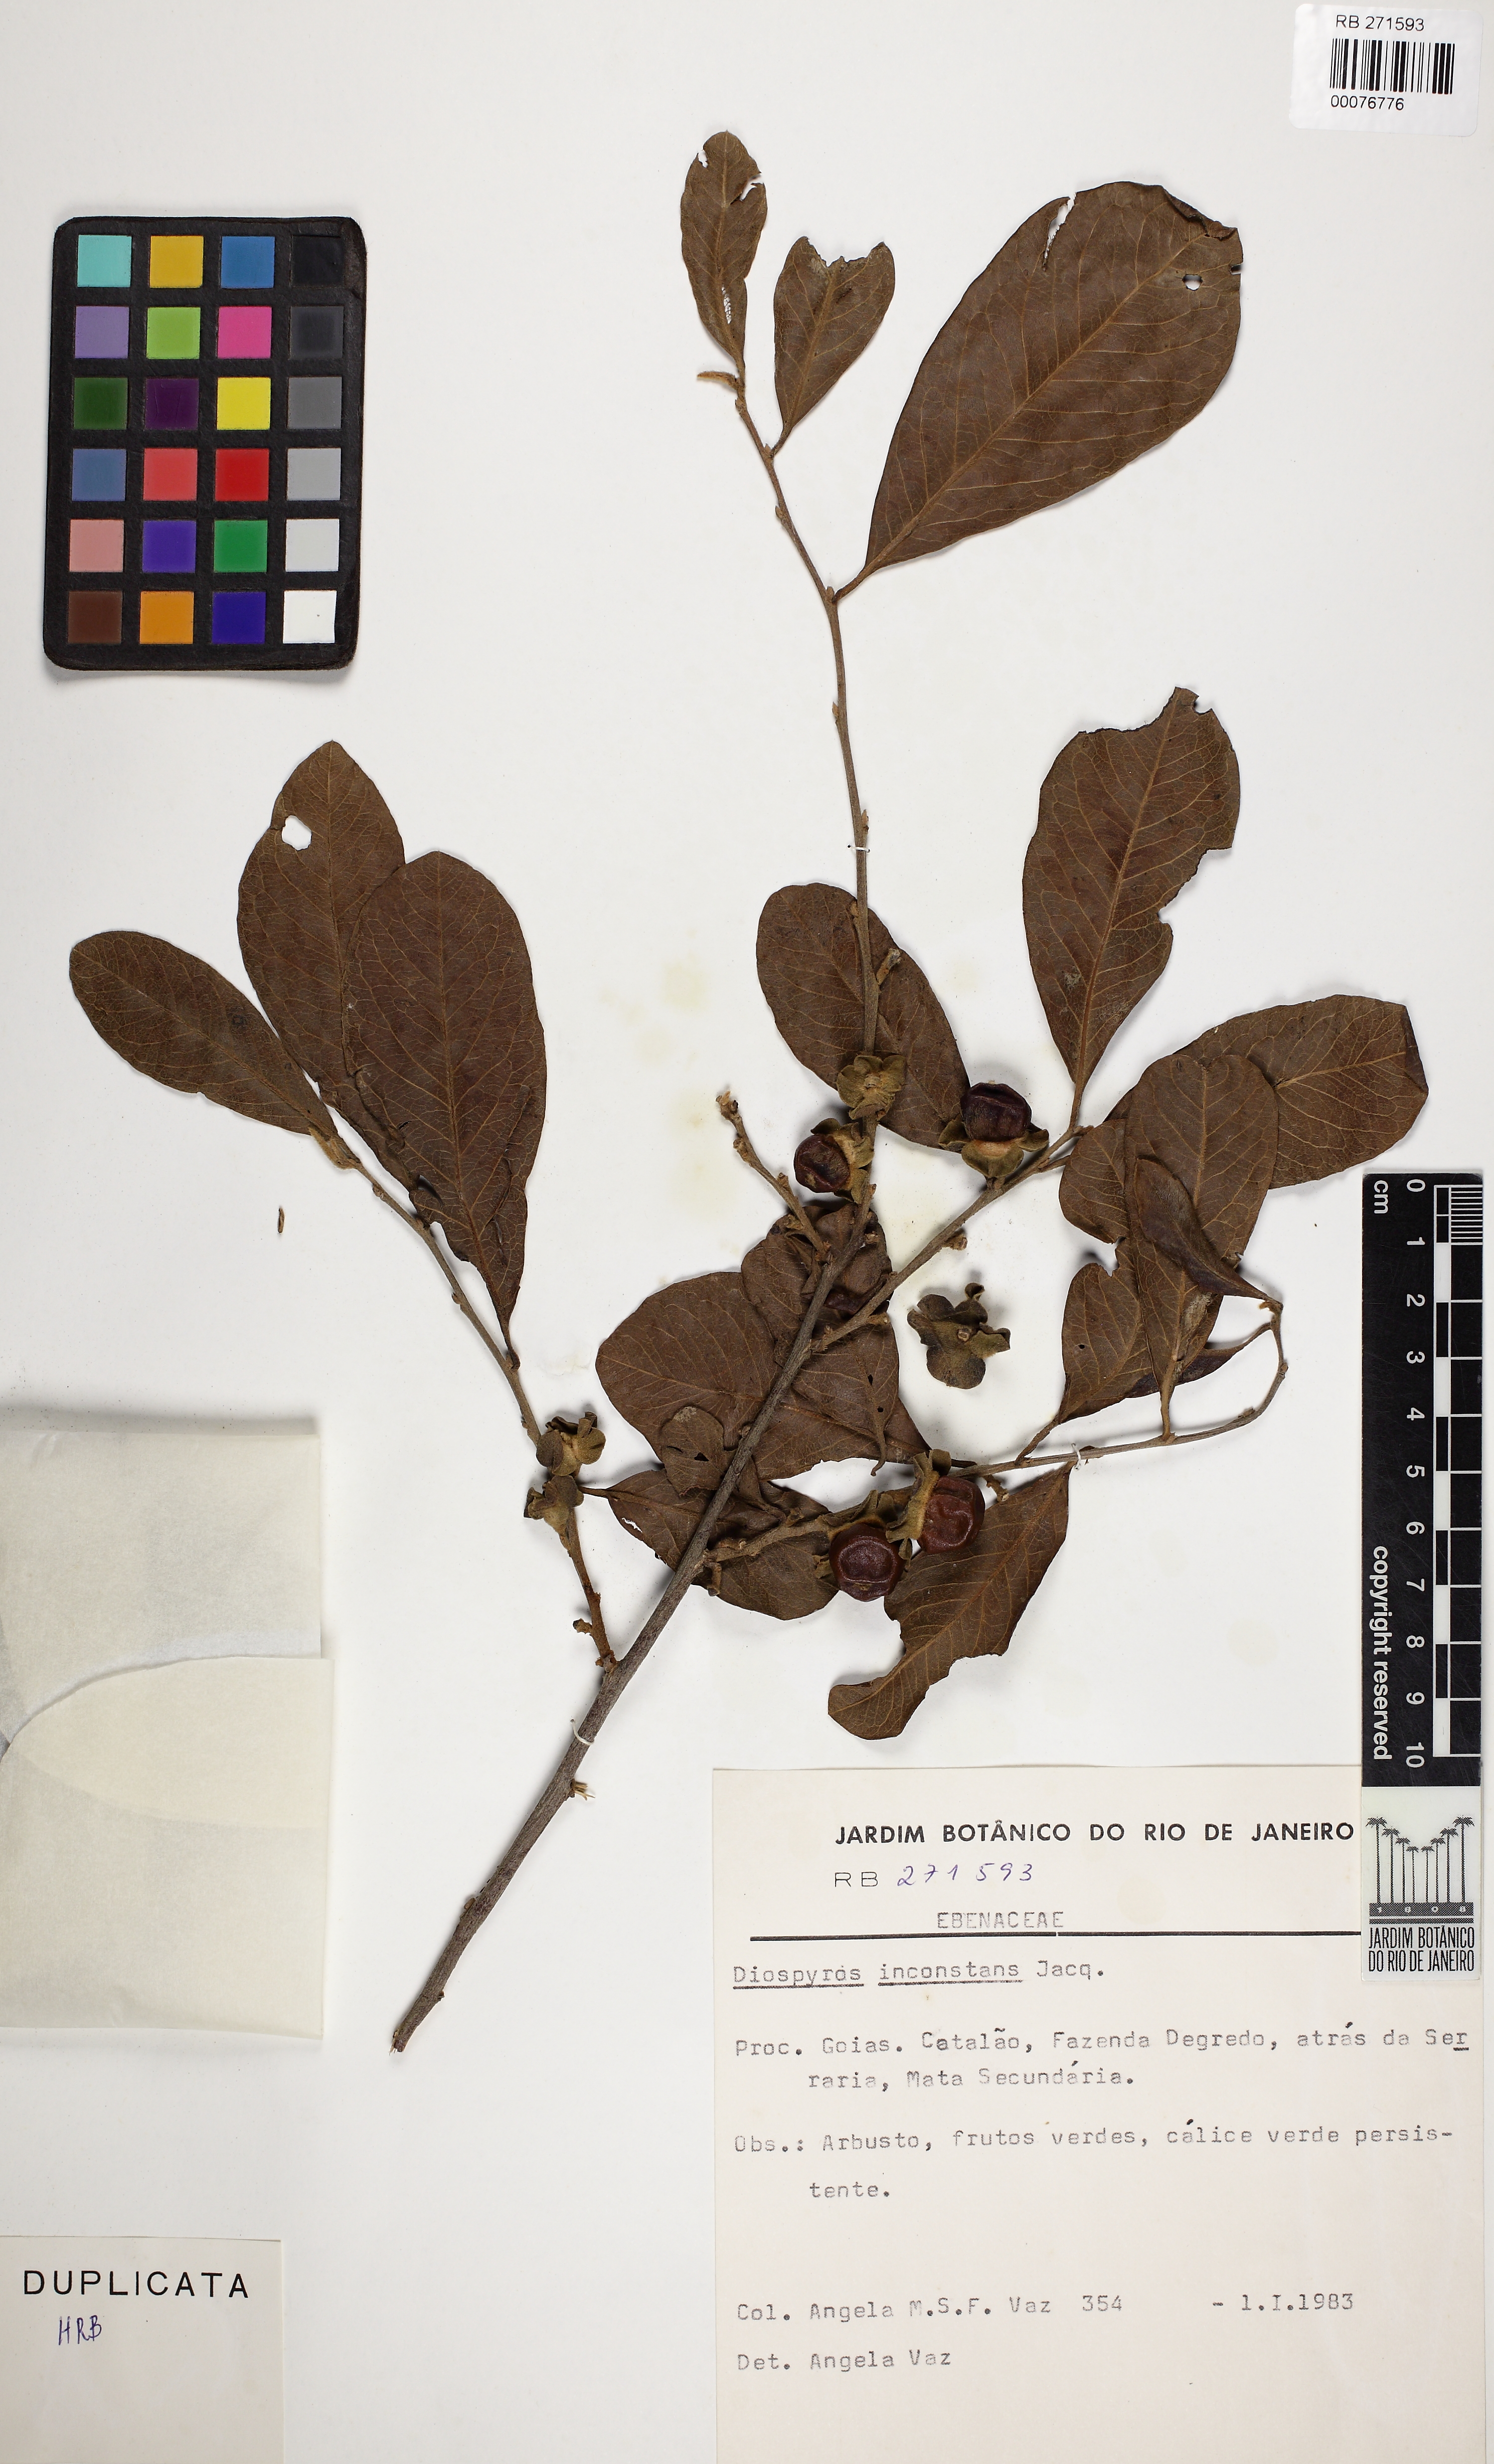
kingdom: Plantae
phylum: Tracheophyta
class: Magnoliopsida
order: Ericales
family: Ebenaceae
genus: Diospyros
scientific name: Diospyros inconstans
